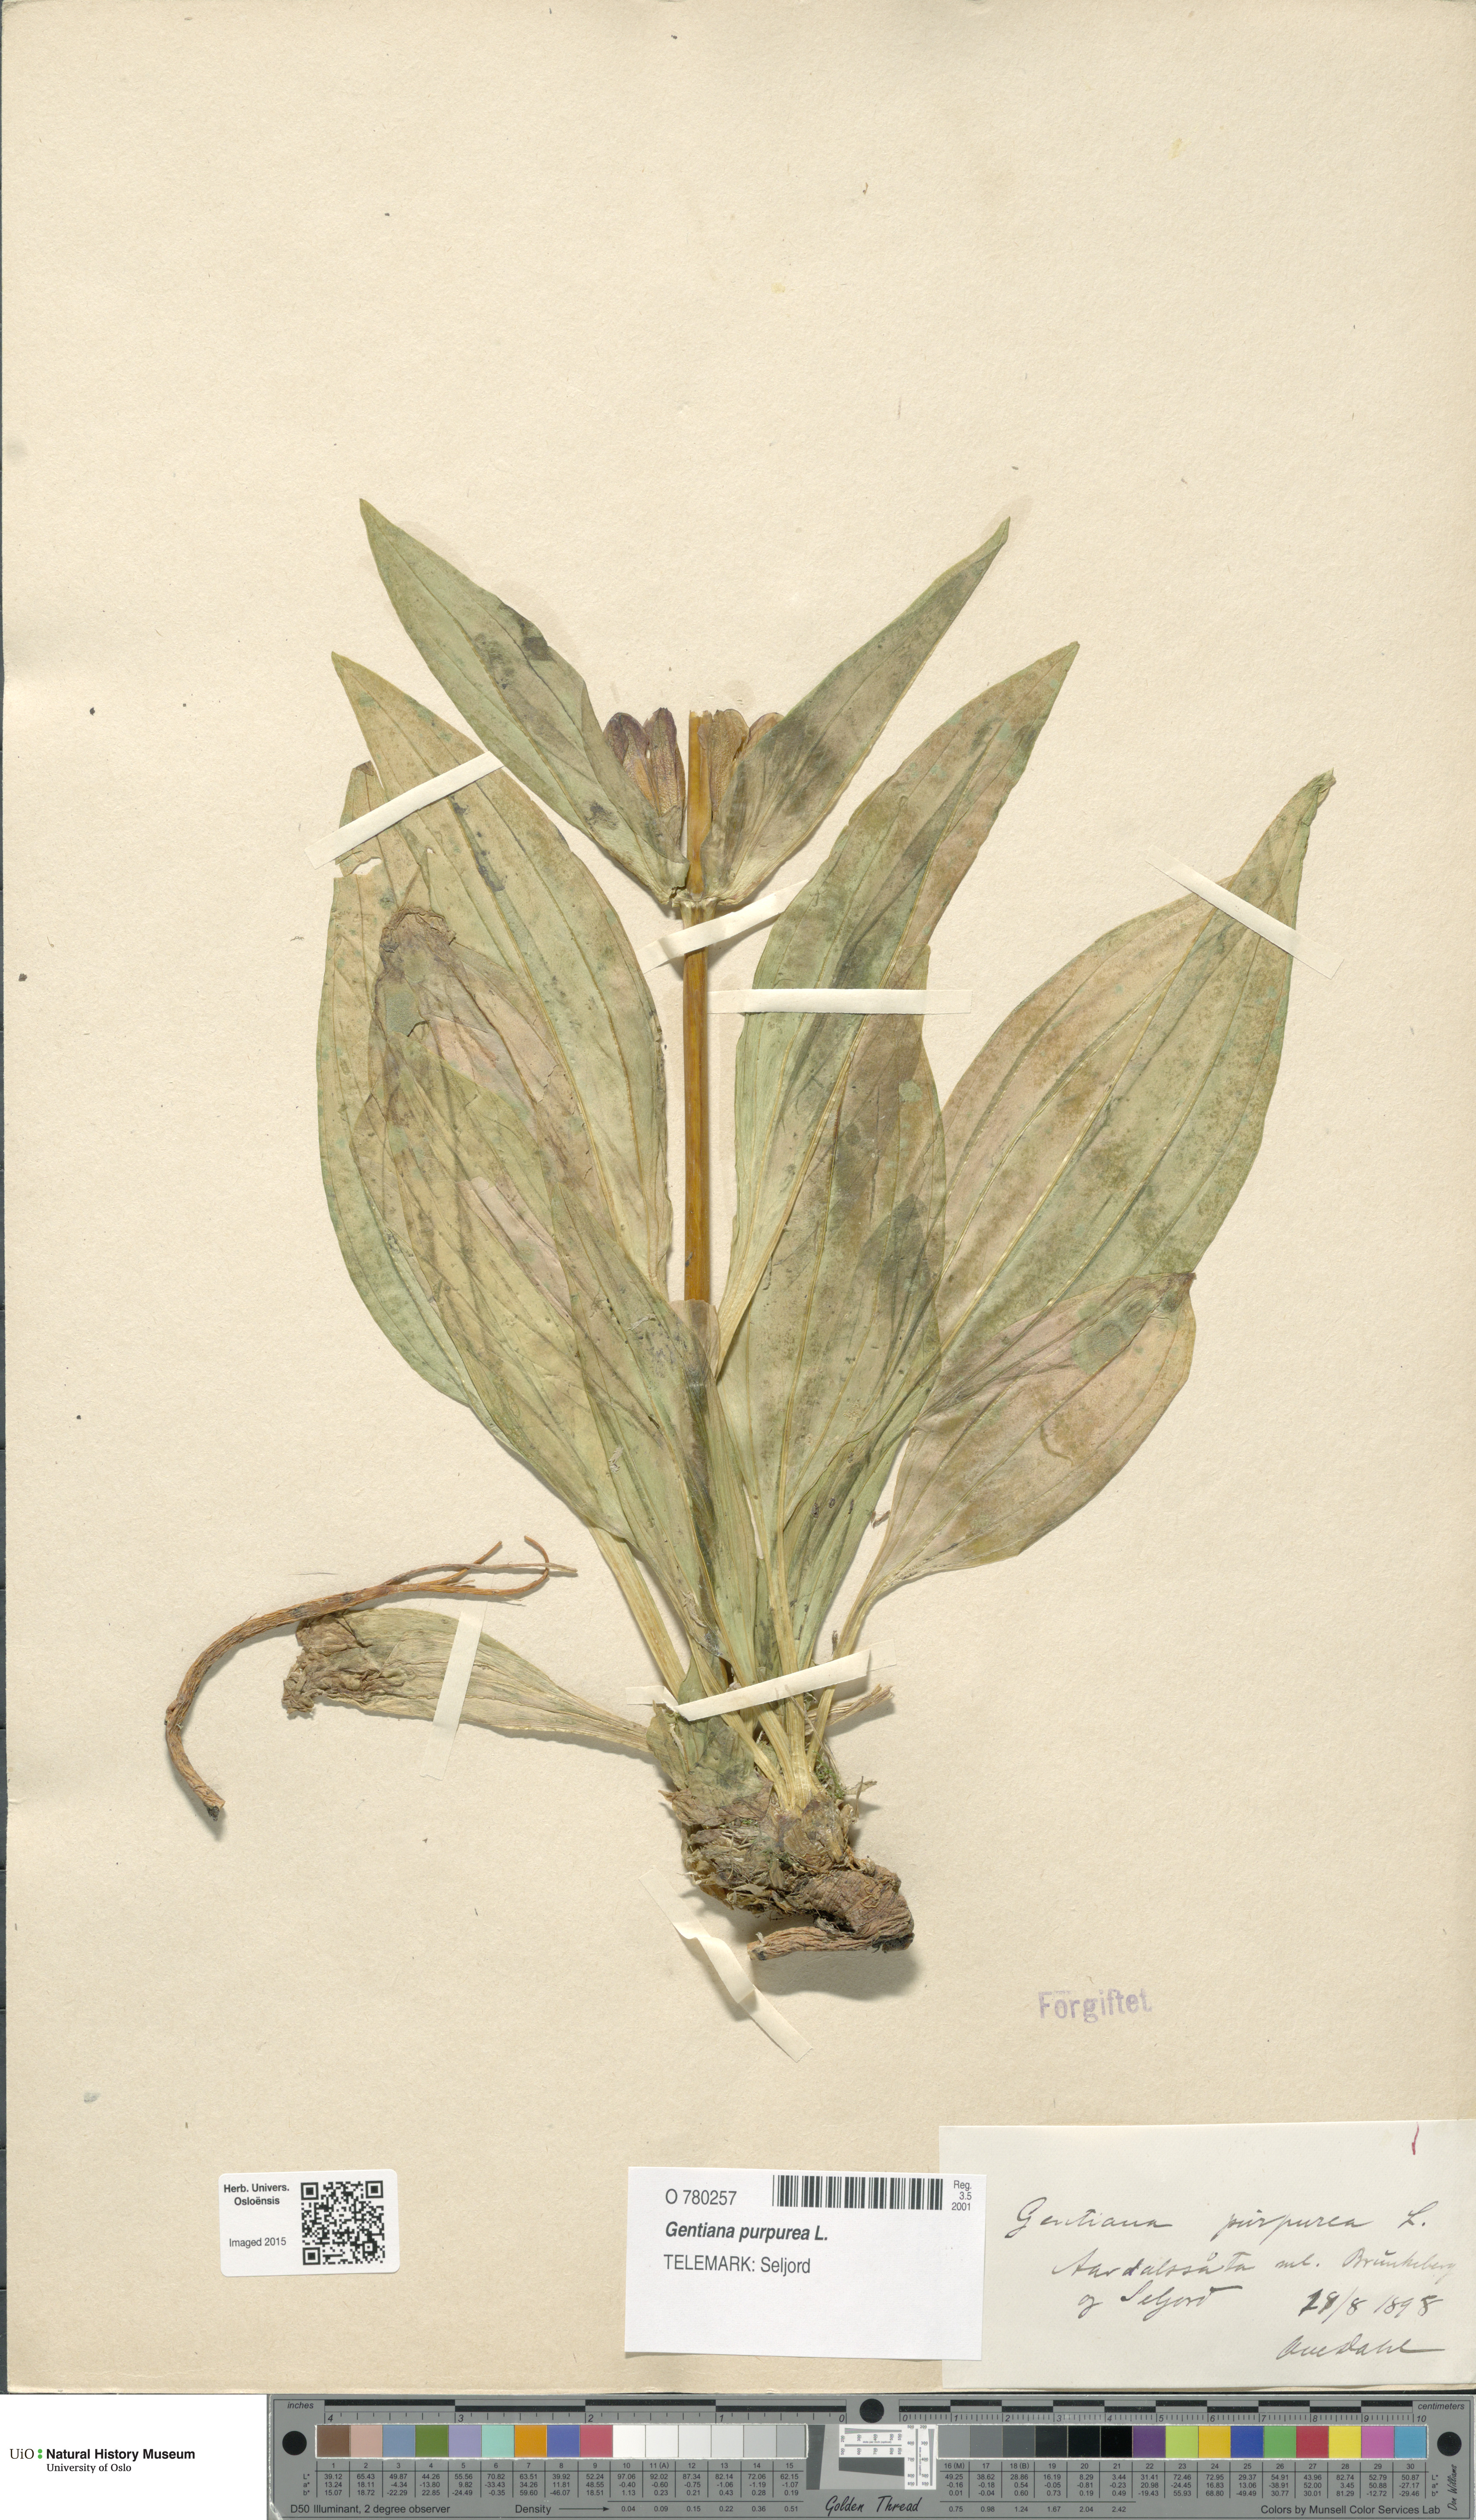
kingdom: Plantae
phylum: Tracheophyta
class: Magnoliopsida
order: Gentianales
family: Gentianaceae
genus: Gentiana
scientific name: Gentiana purpurea
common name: Purple gentian
